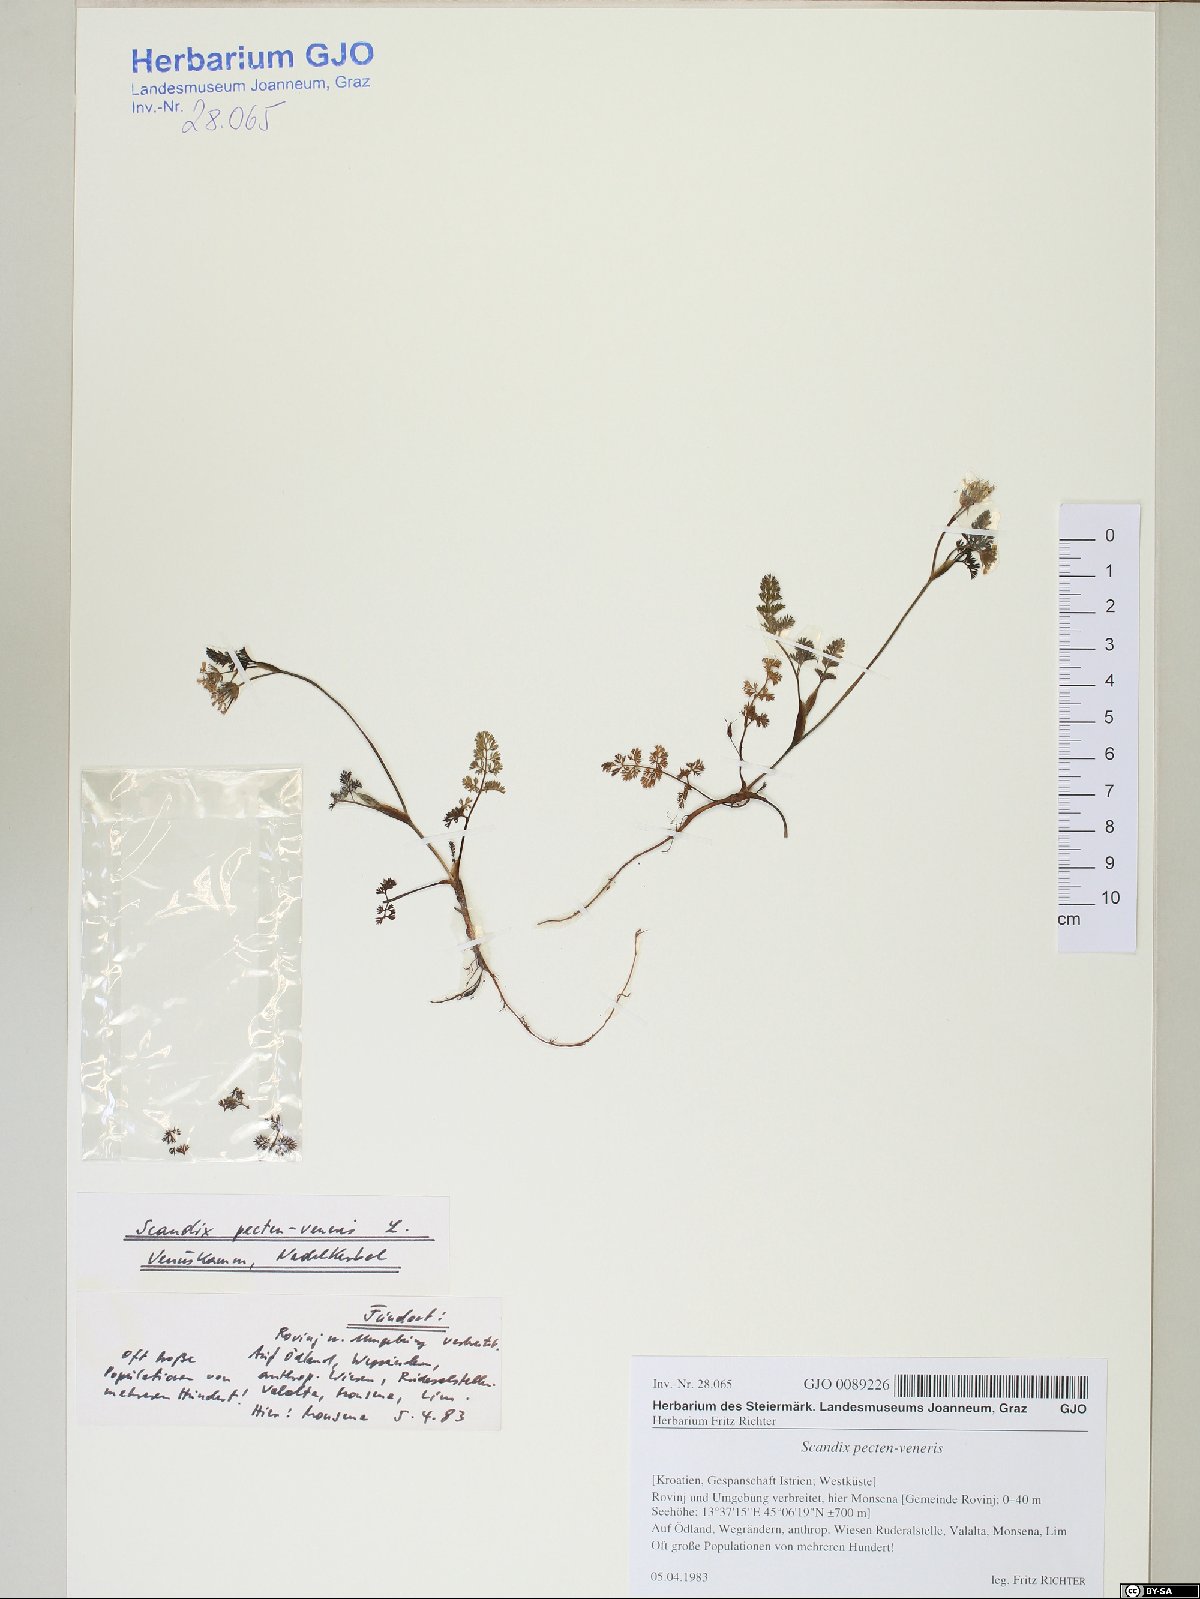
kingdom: Plantae
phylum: Tracheophyta
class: Magnoliopsida
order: Apiales
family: Apiaceae
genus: Scandix
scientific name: Scandix pecten-veneris
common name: Shepherd's-needle
